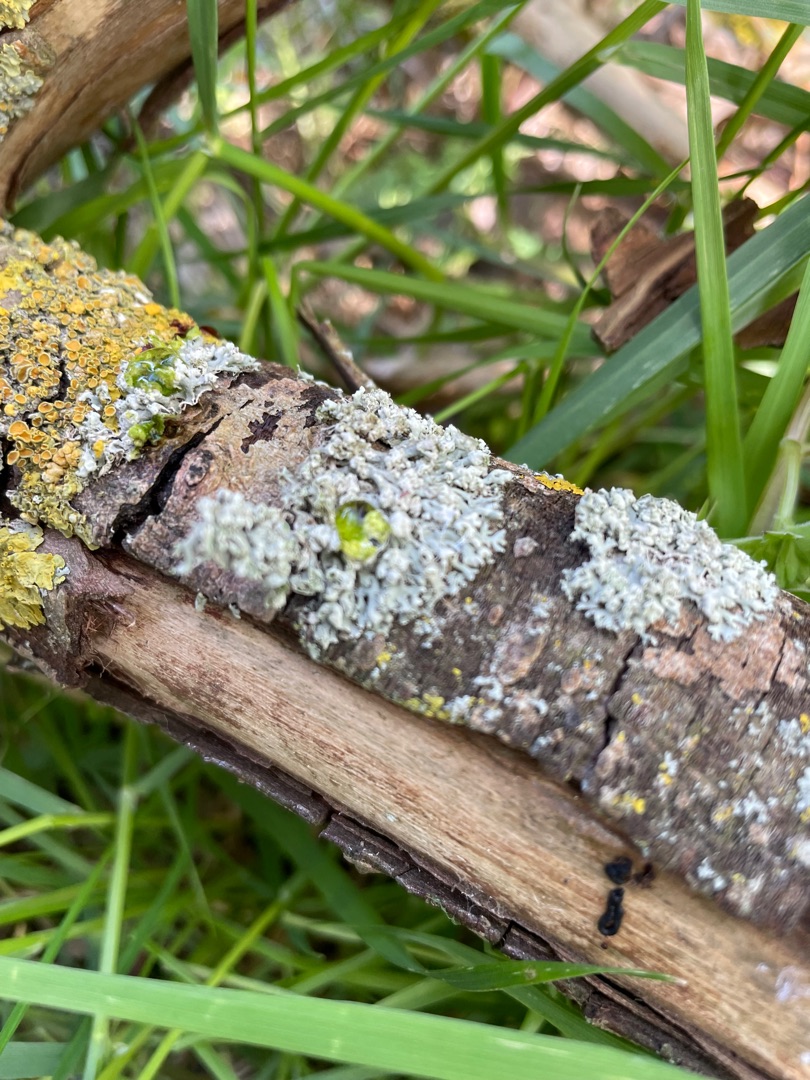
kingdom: Fungi
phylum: Ascomycota
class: Lecanoromycetes
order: Caliciales
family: Physciaceae
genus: Physcia
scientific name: Physcia adscendens
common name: Hætte-rosetlav
